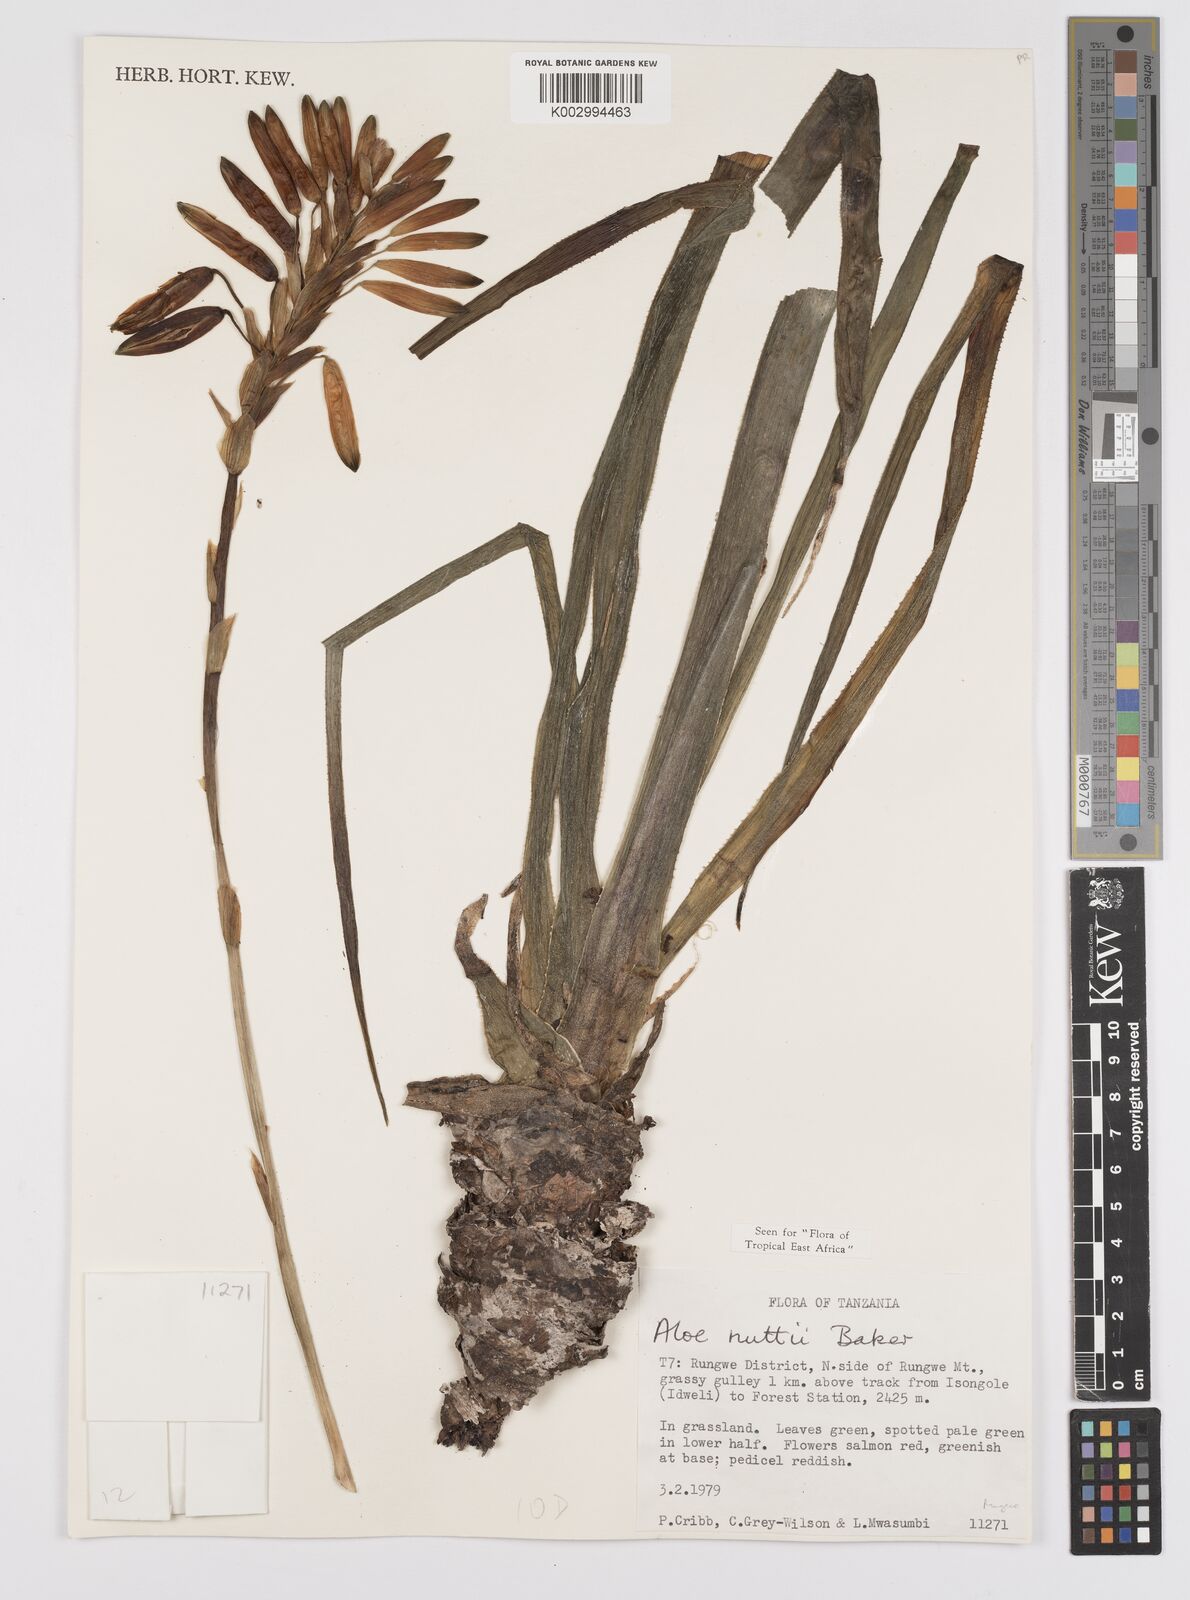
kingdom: Plantae
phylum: Tracheophyta
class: Liliopsida
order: Asparagales
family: Asphodelaceae
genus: Aloe
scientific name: Aloe nuttii
